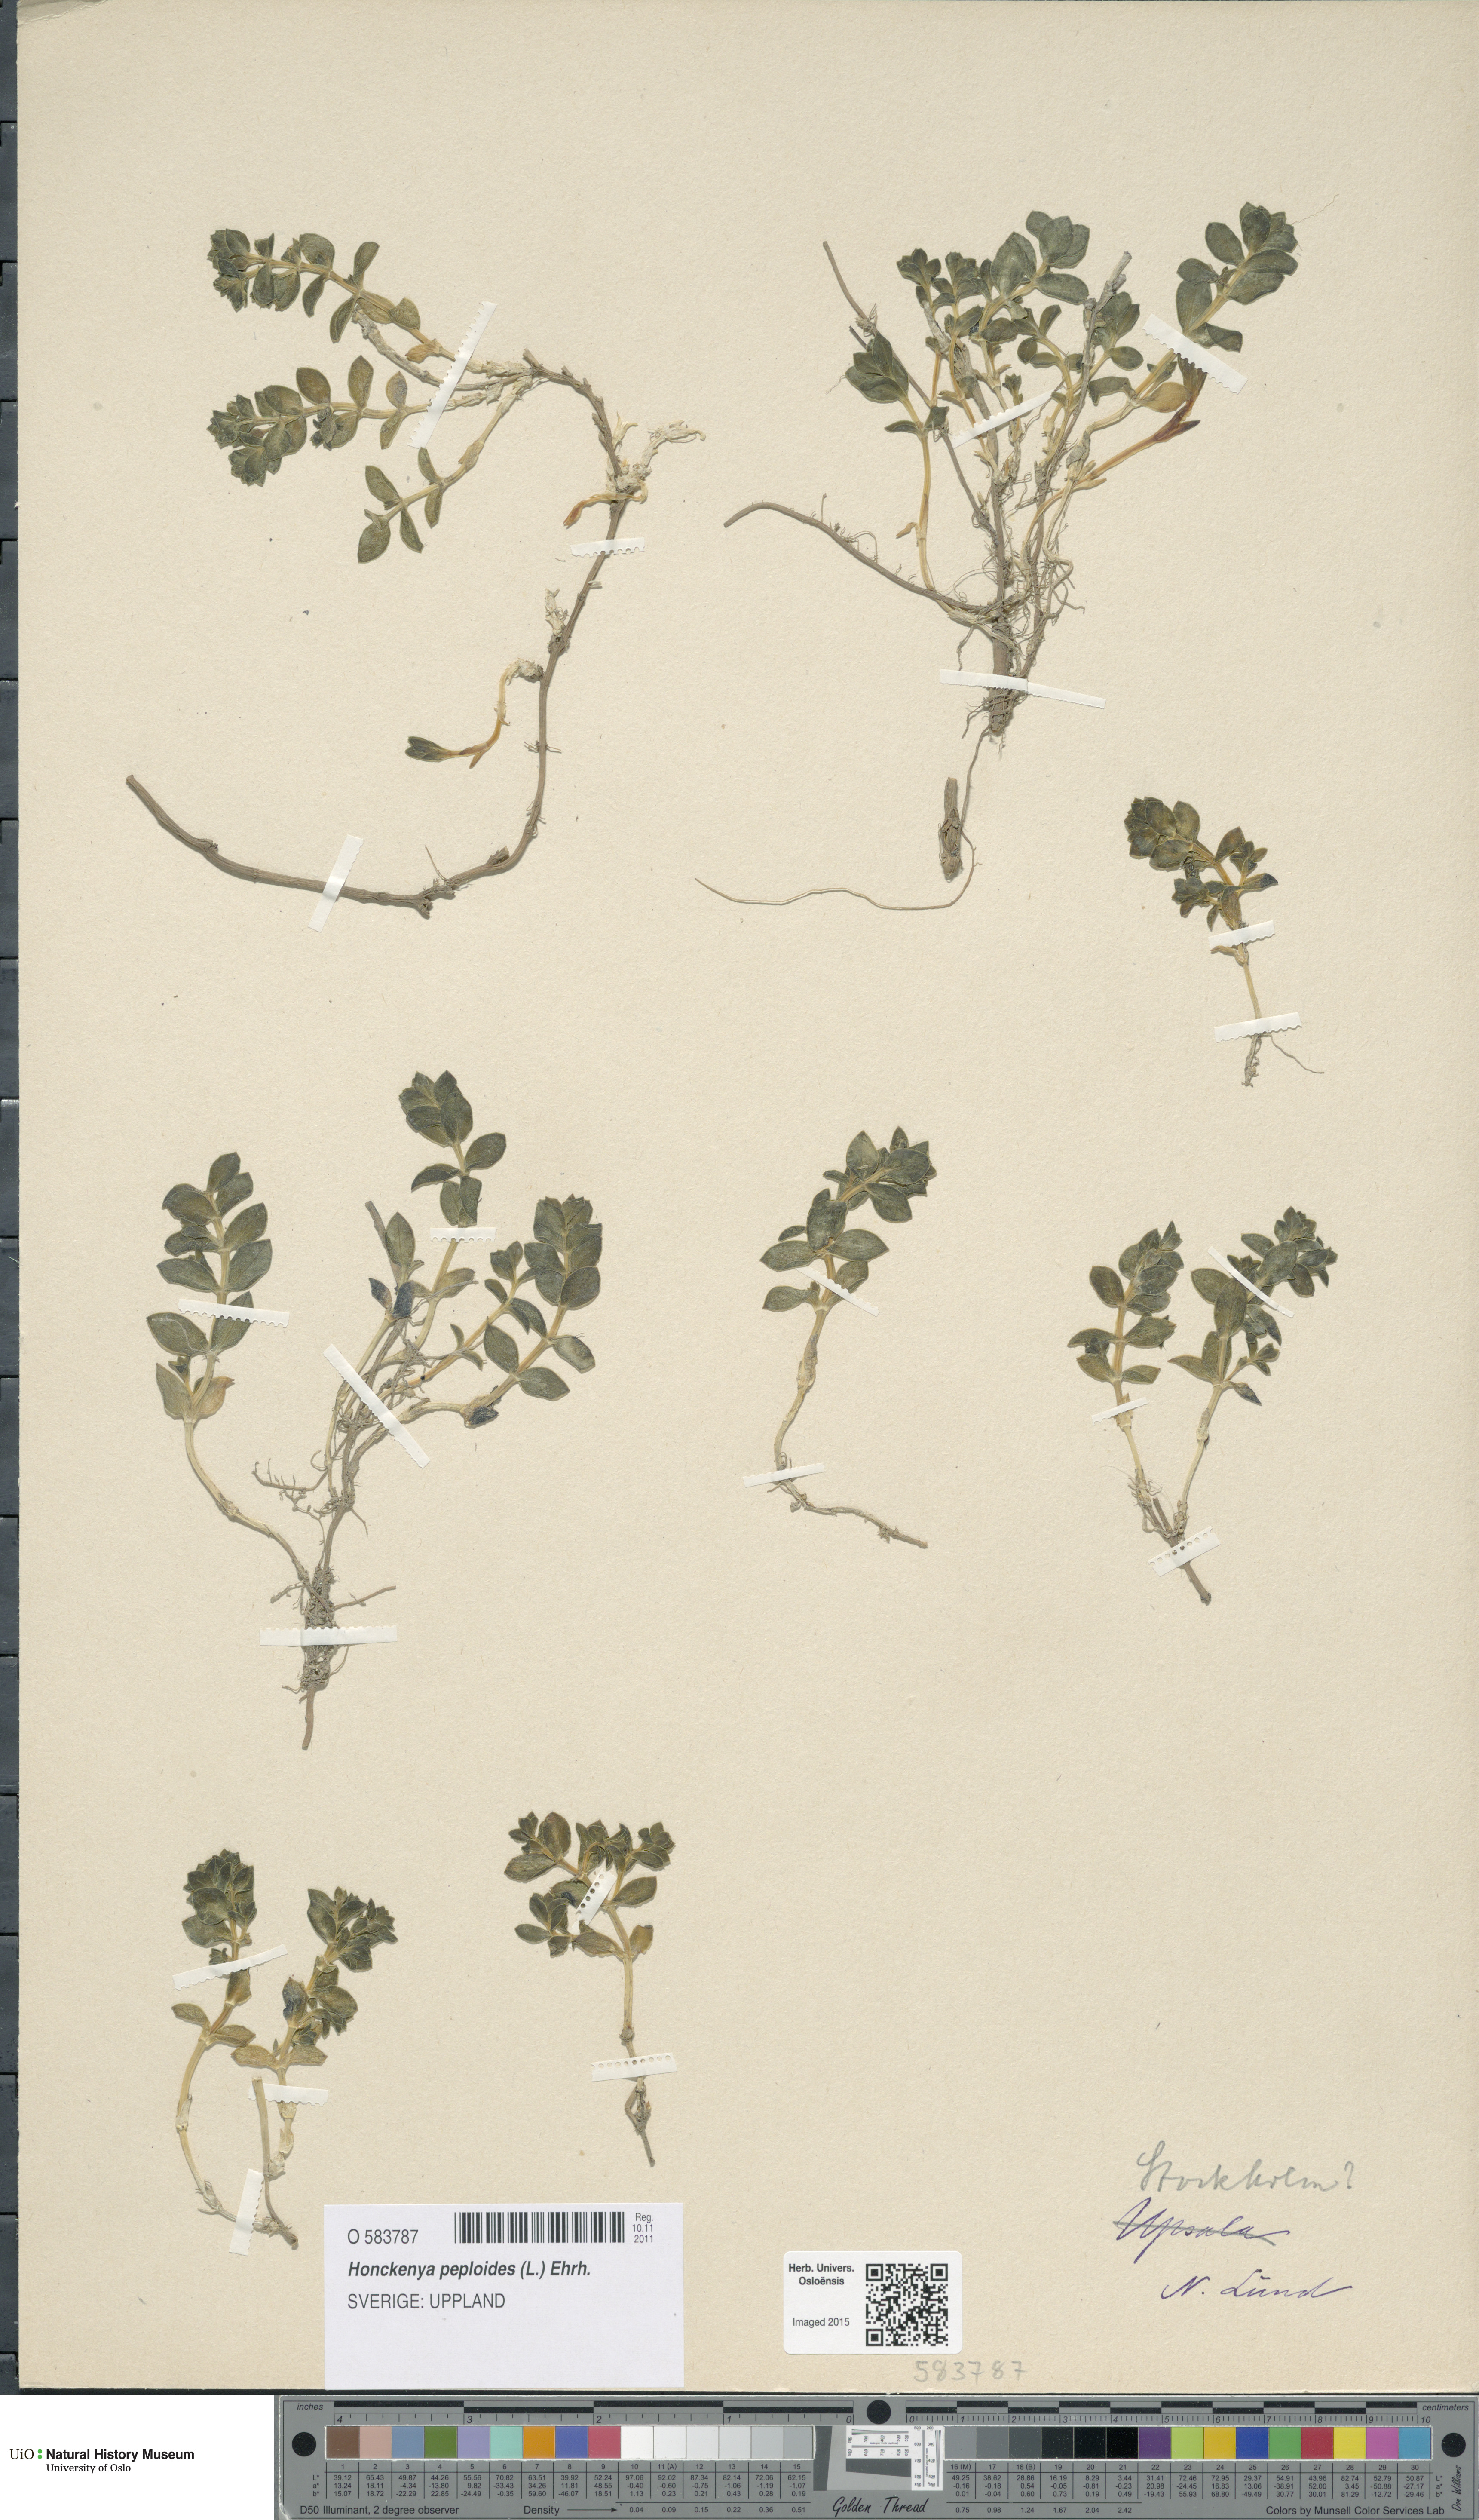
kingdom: Plantae
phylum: Tracheophyta
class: Magnoliopsida
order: Caryophyllales
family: Caryophyllaceae
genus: Honckenya
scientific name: Honckenya peploides
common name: Sea sandwort
